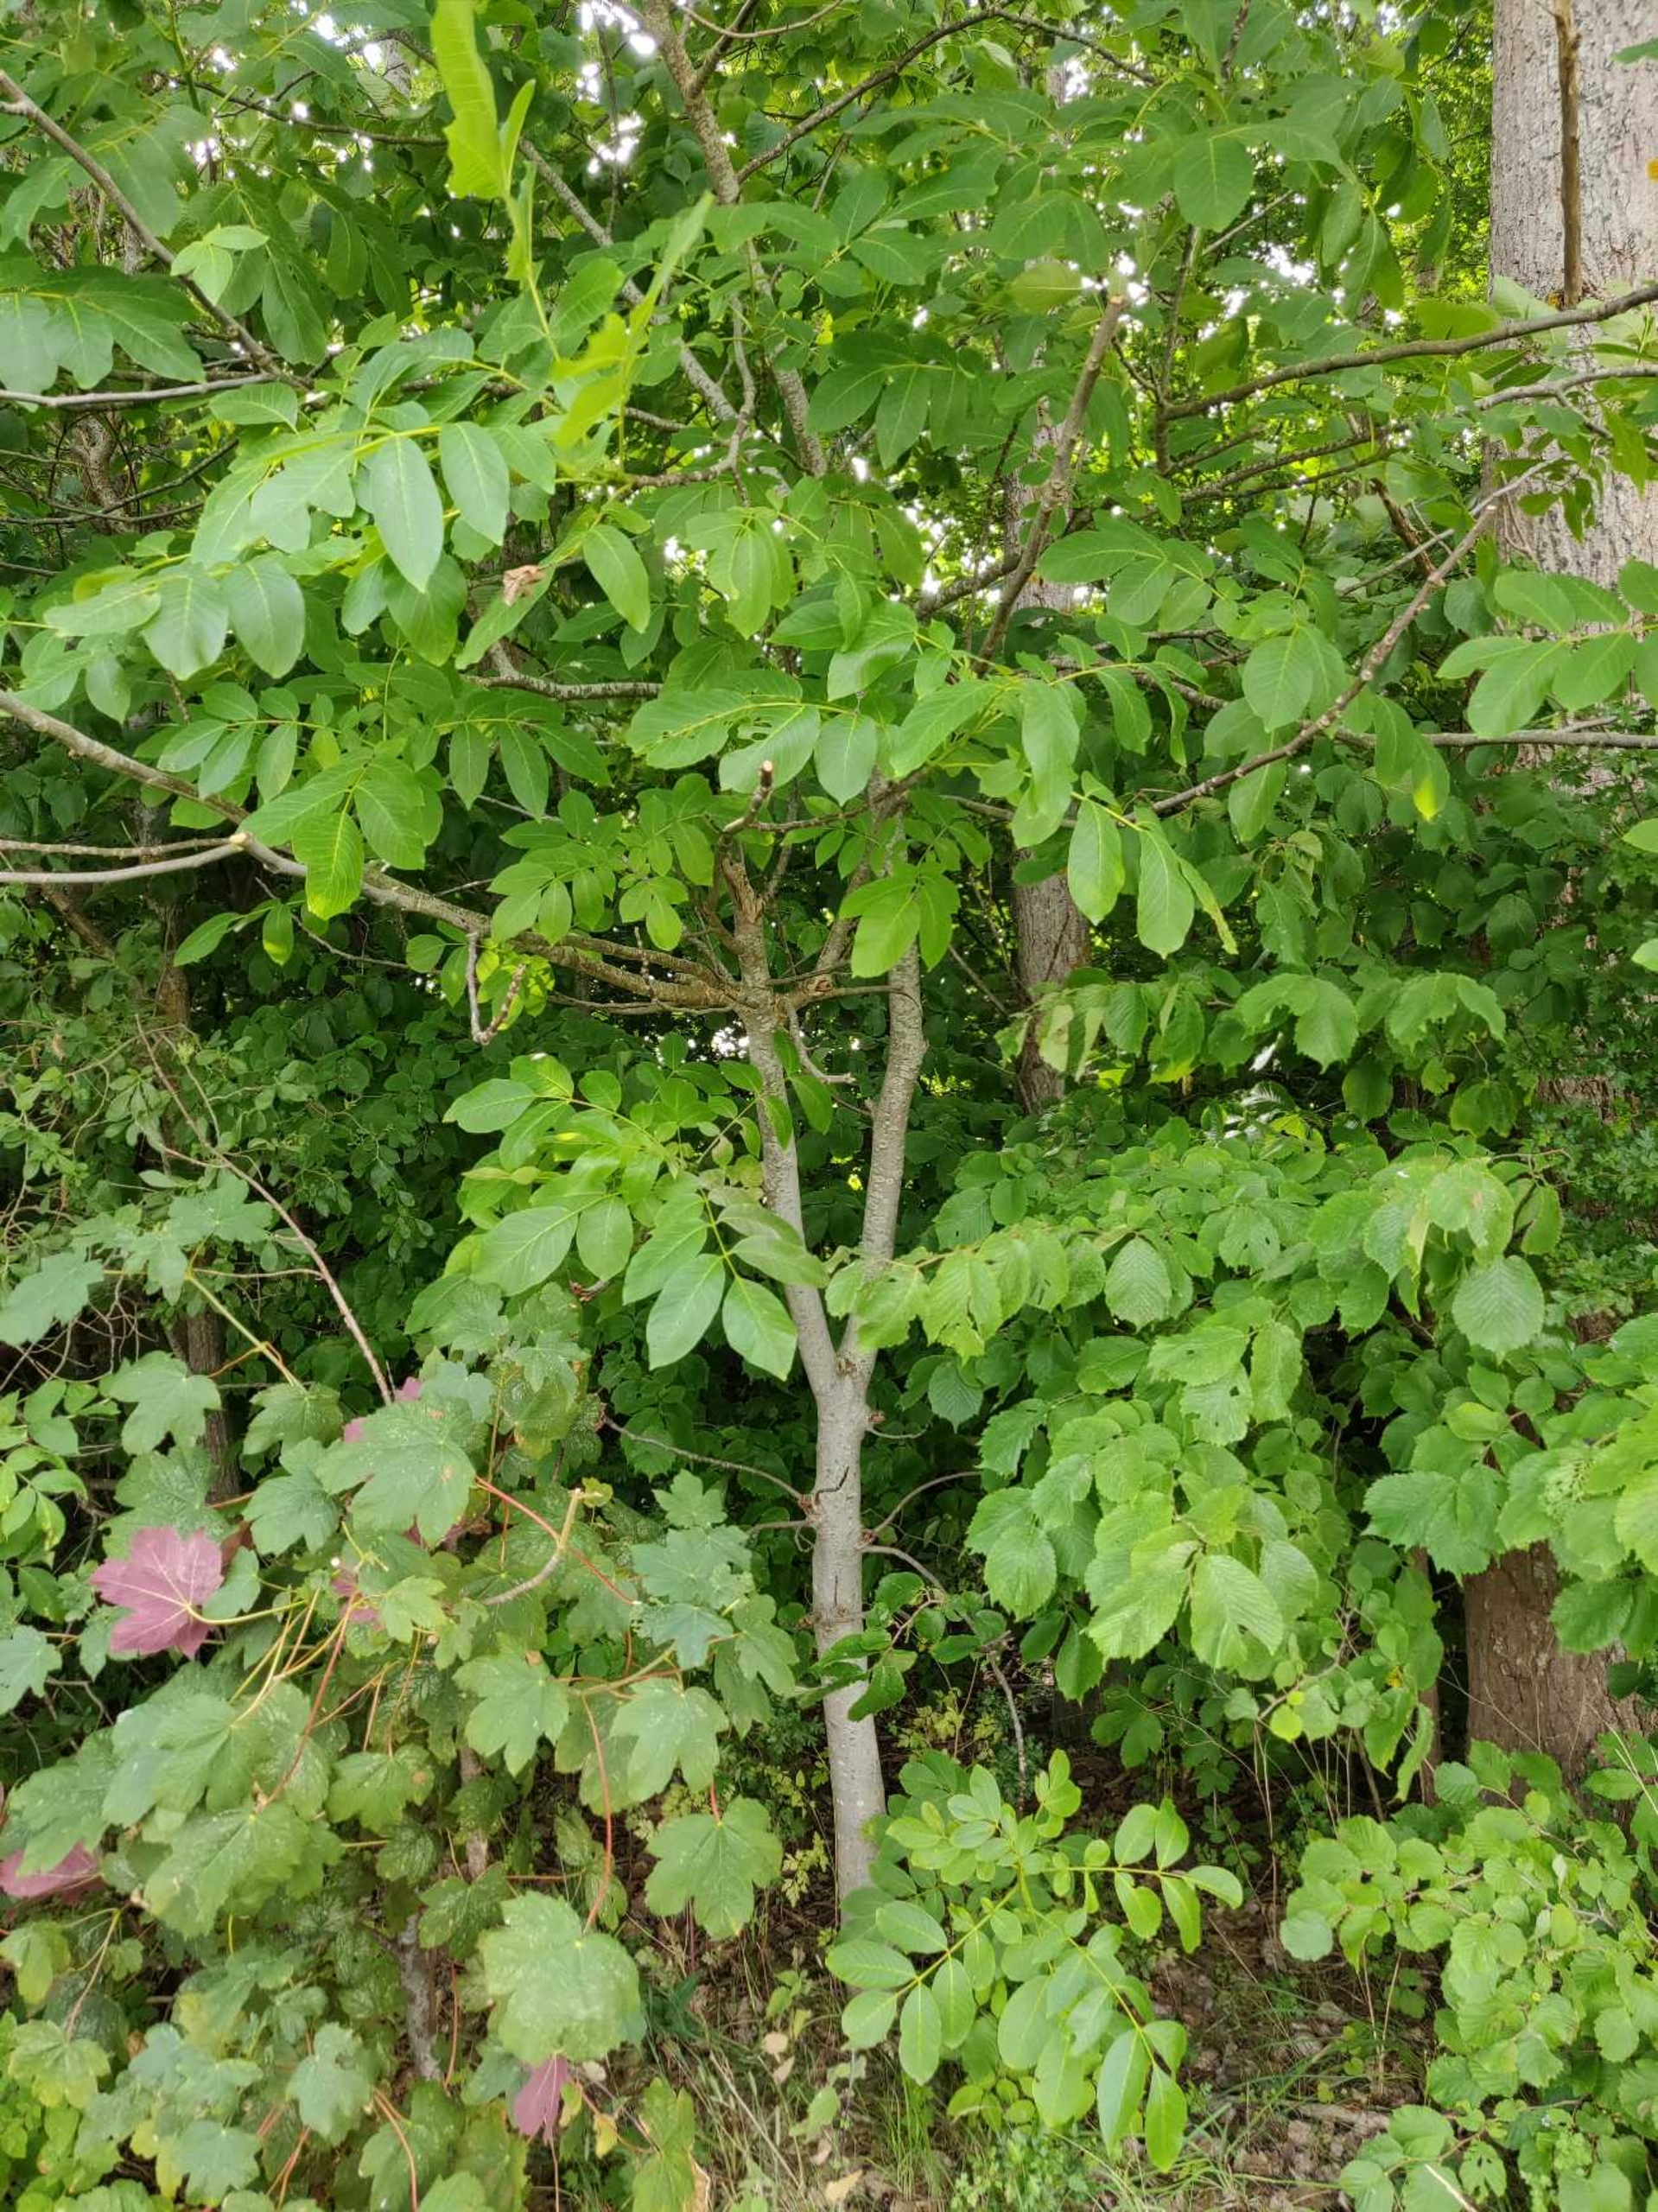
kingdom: Plantae
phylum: Tracheophyta
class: Magnoliopsida
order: Fagales
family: Juglandaceae
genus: Juglans
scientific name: Juglans regia
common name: Almindelig valnød
